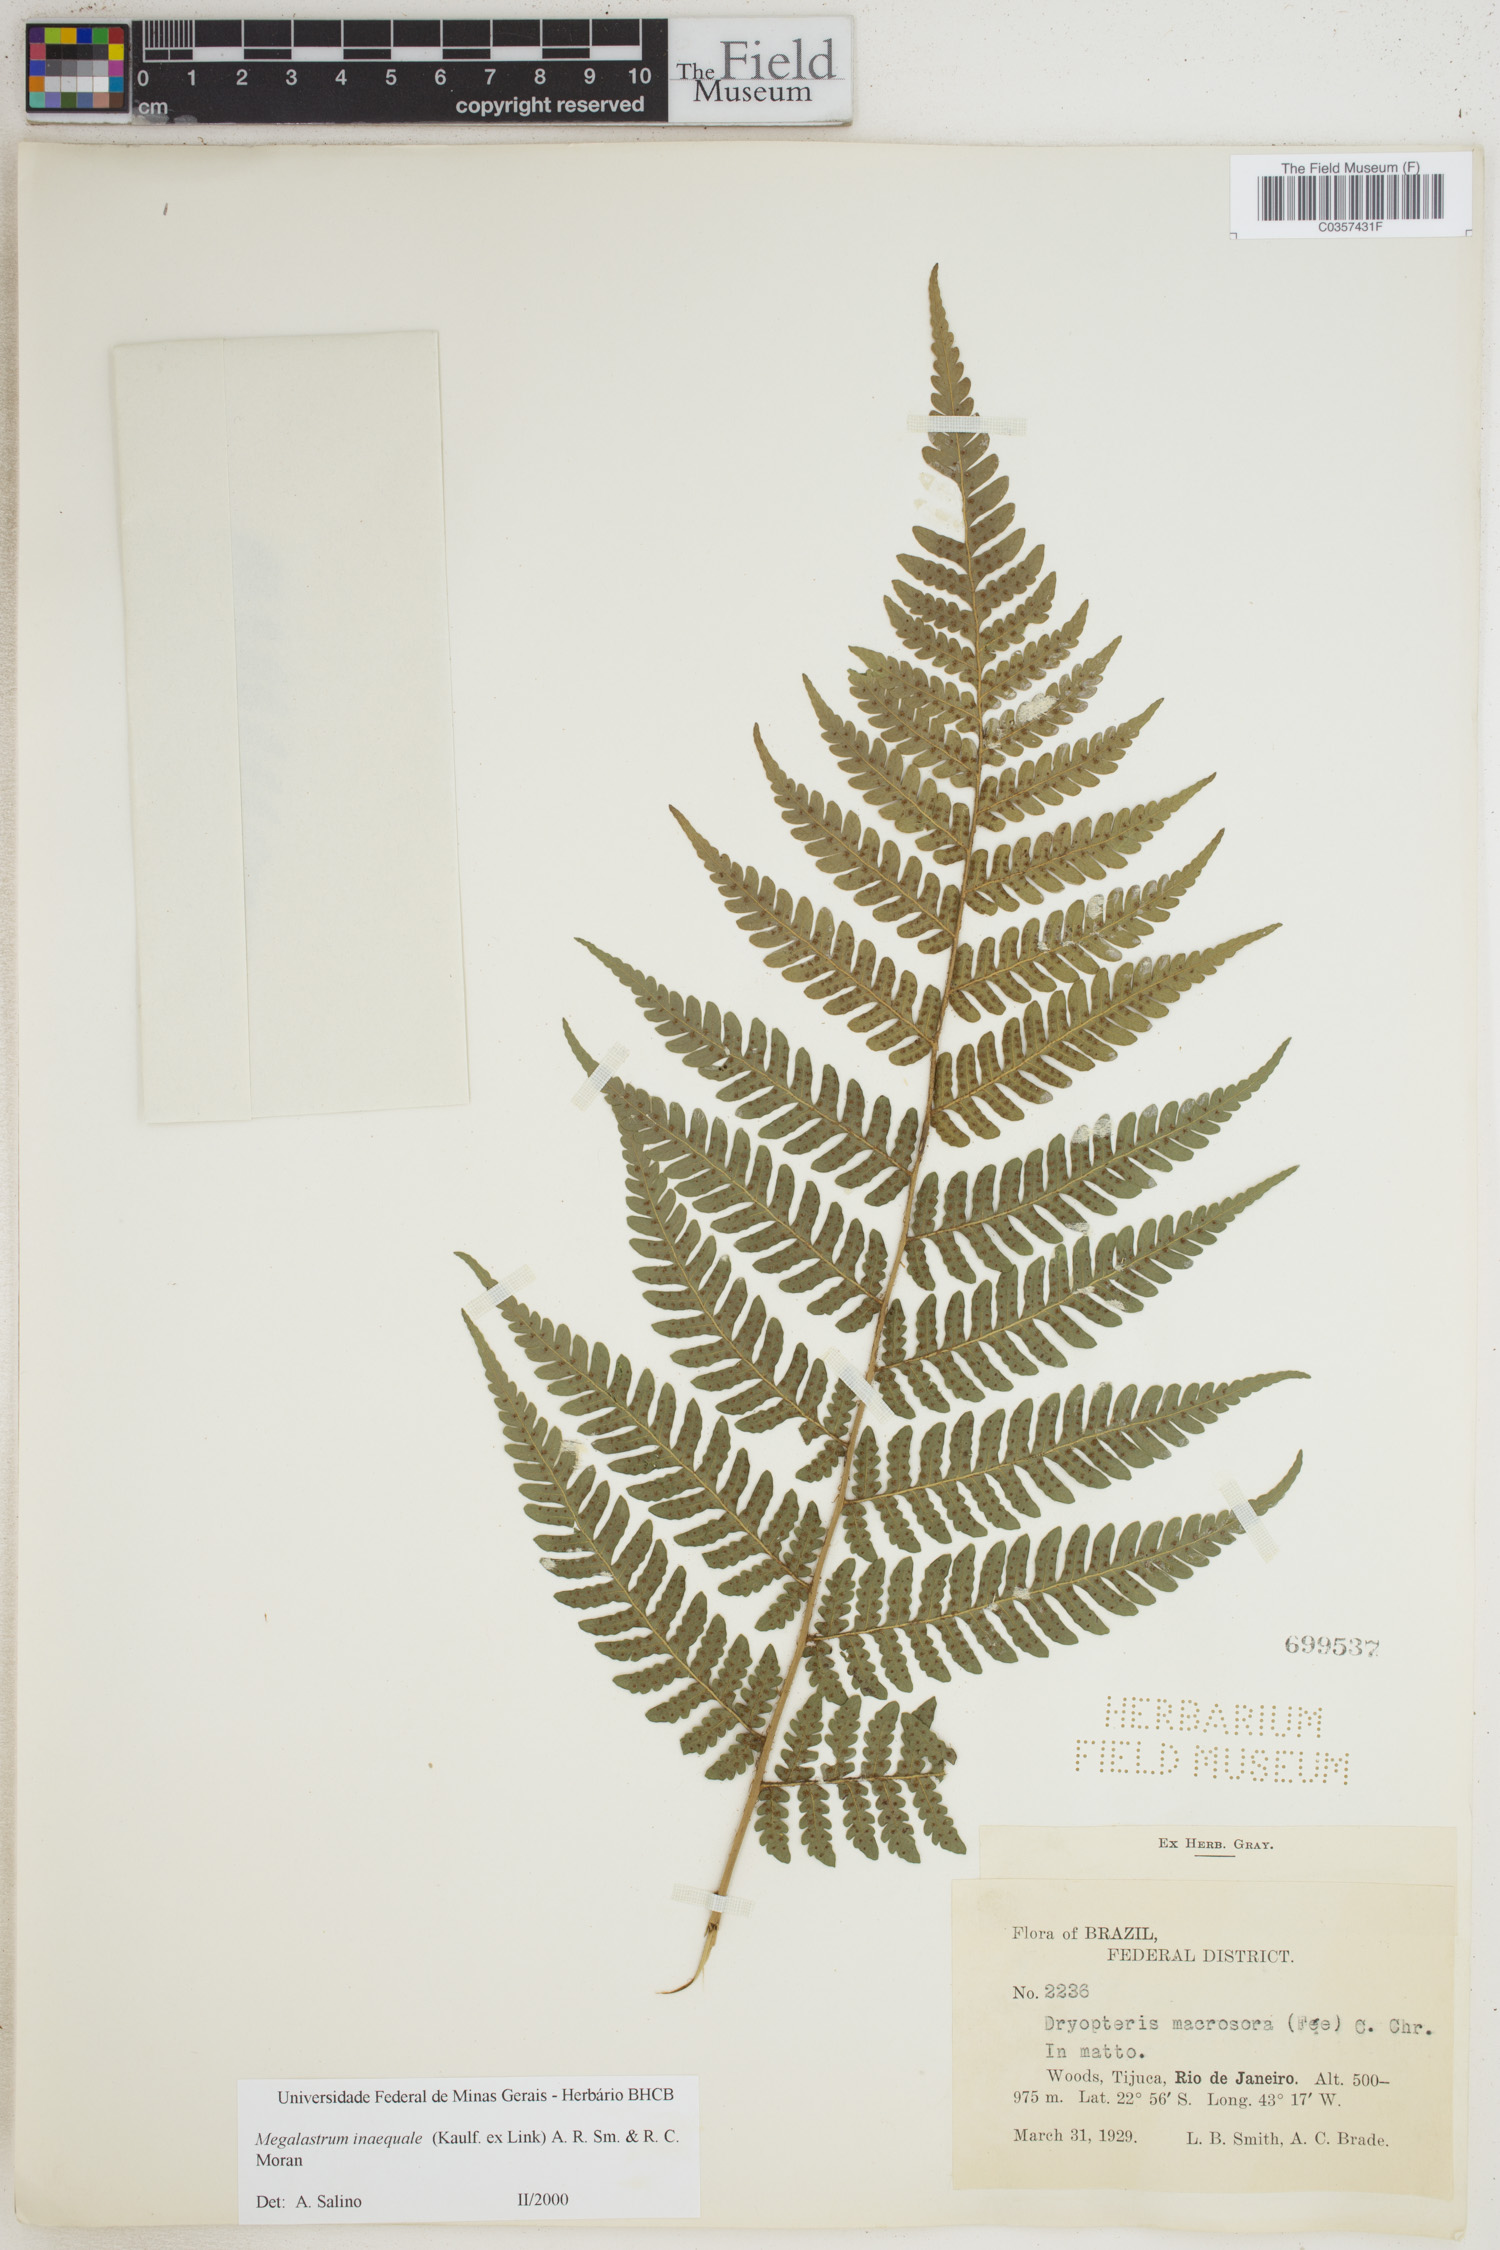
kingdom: Plantae
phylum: Tracheophyta
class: Polypodiopsida
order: Polypodiales
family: Dryopteridaceae
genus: Megalastrum
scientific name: Megalastrum inaequale
